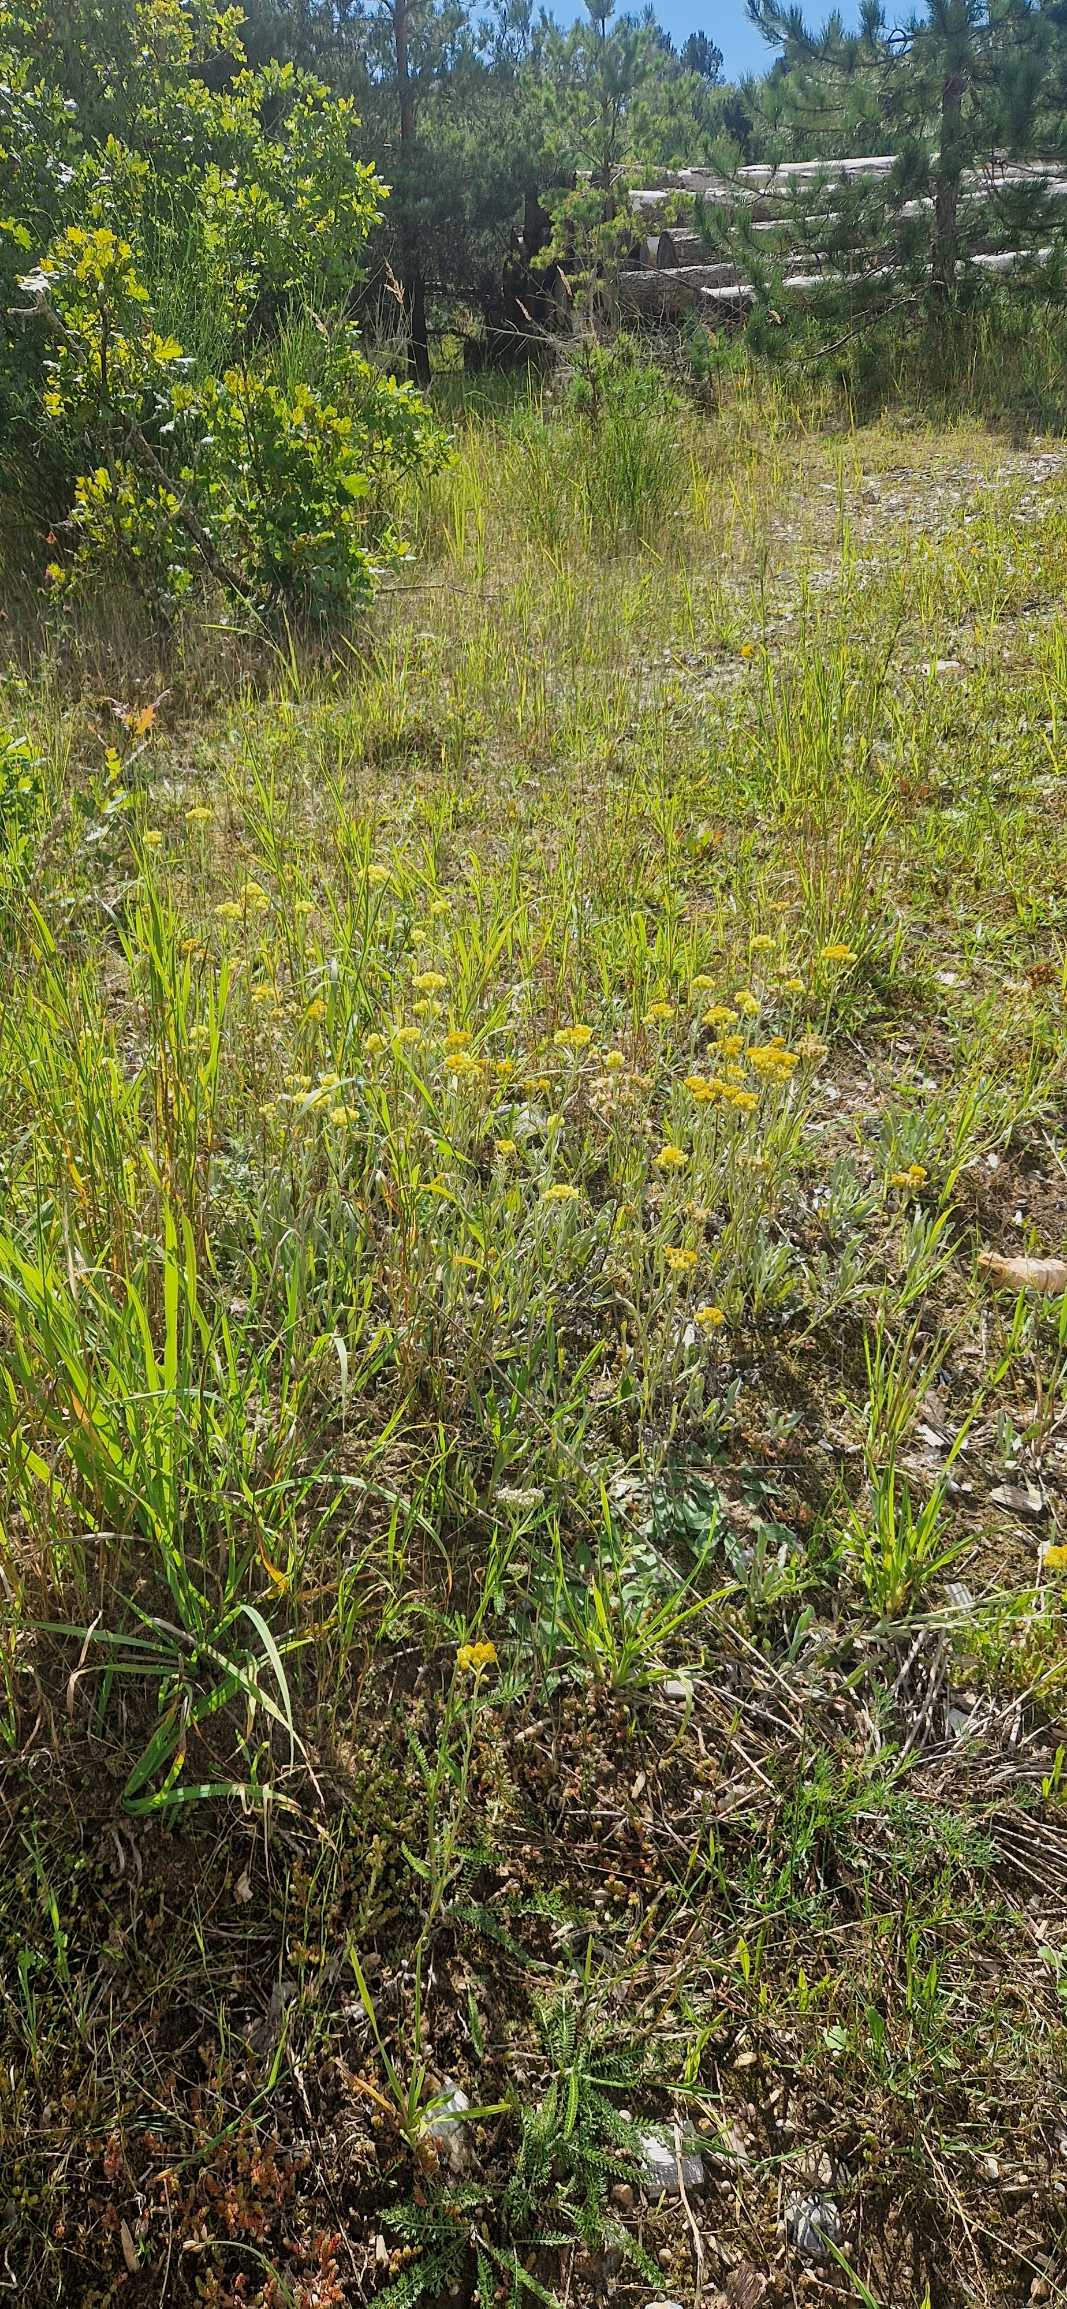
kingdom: Plantae
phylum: Tracheophyta
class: Magnoliopsida
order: Asterales
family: Asteraceae
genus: Helichrysum
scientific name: Helichrysum arenarium
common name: Gul evighedsblomst
